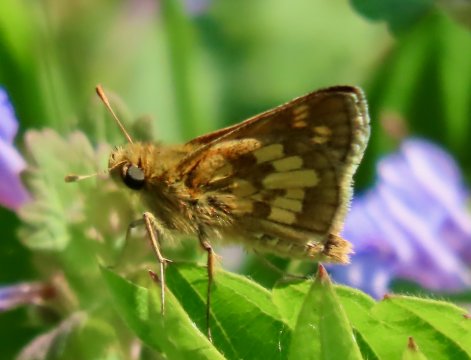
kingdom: Animalia
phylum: Arthropoda
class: Insecta
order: Lepidoptera
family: Hesperiidae
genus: Polites
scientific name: Polites coras
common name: Peck's Skipper
